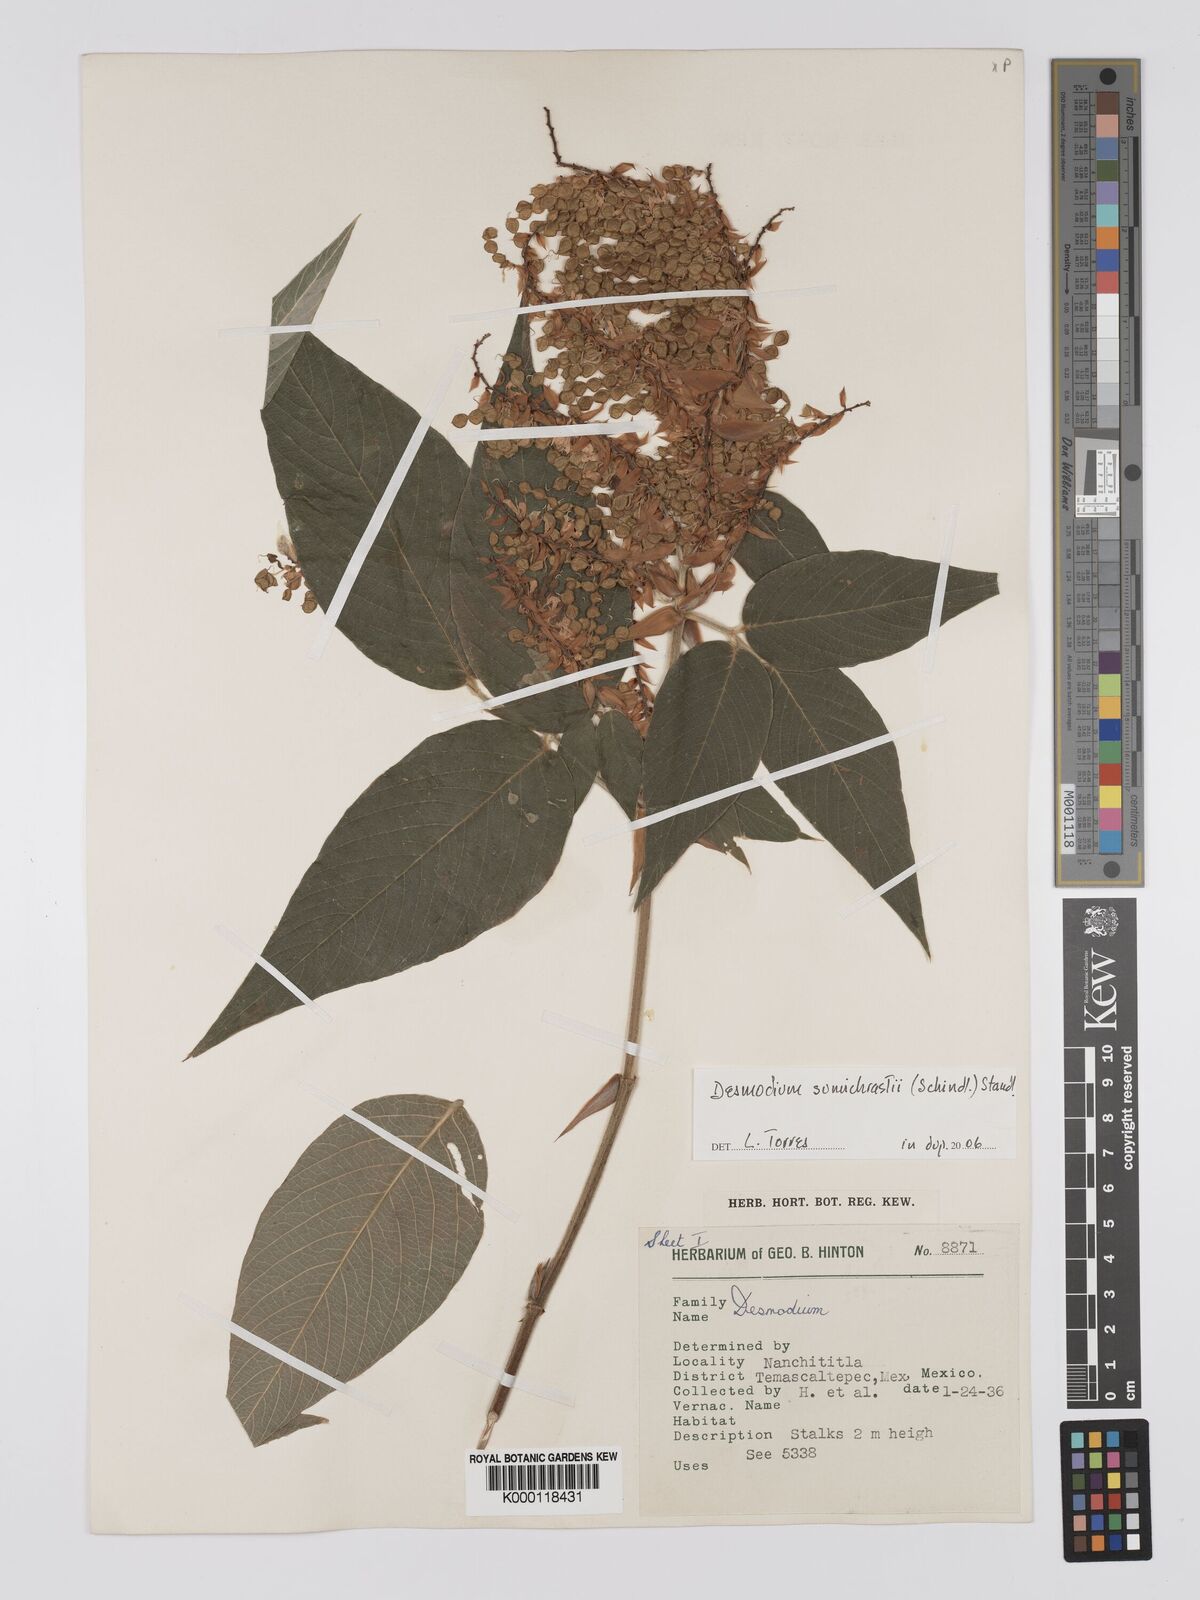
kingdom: Plantae
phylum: Tracheophyta
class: Magnoliopsida
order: Fabales
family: Fabaceae
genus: Desmodium
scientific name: Desmodium
